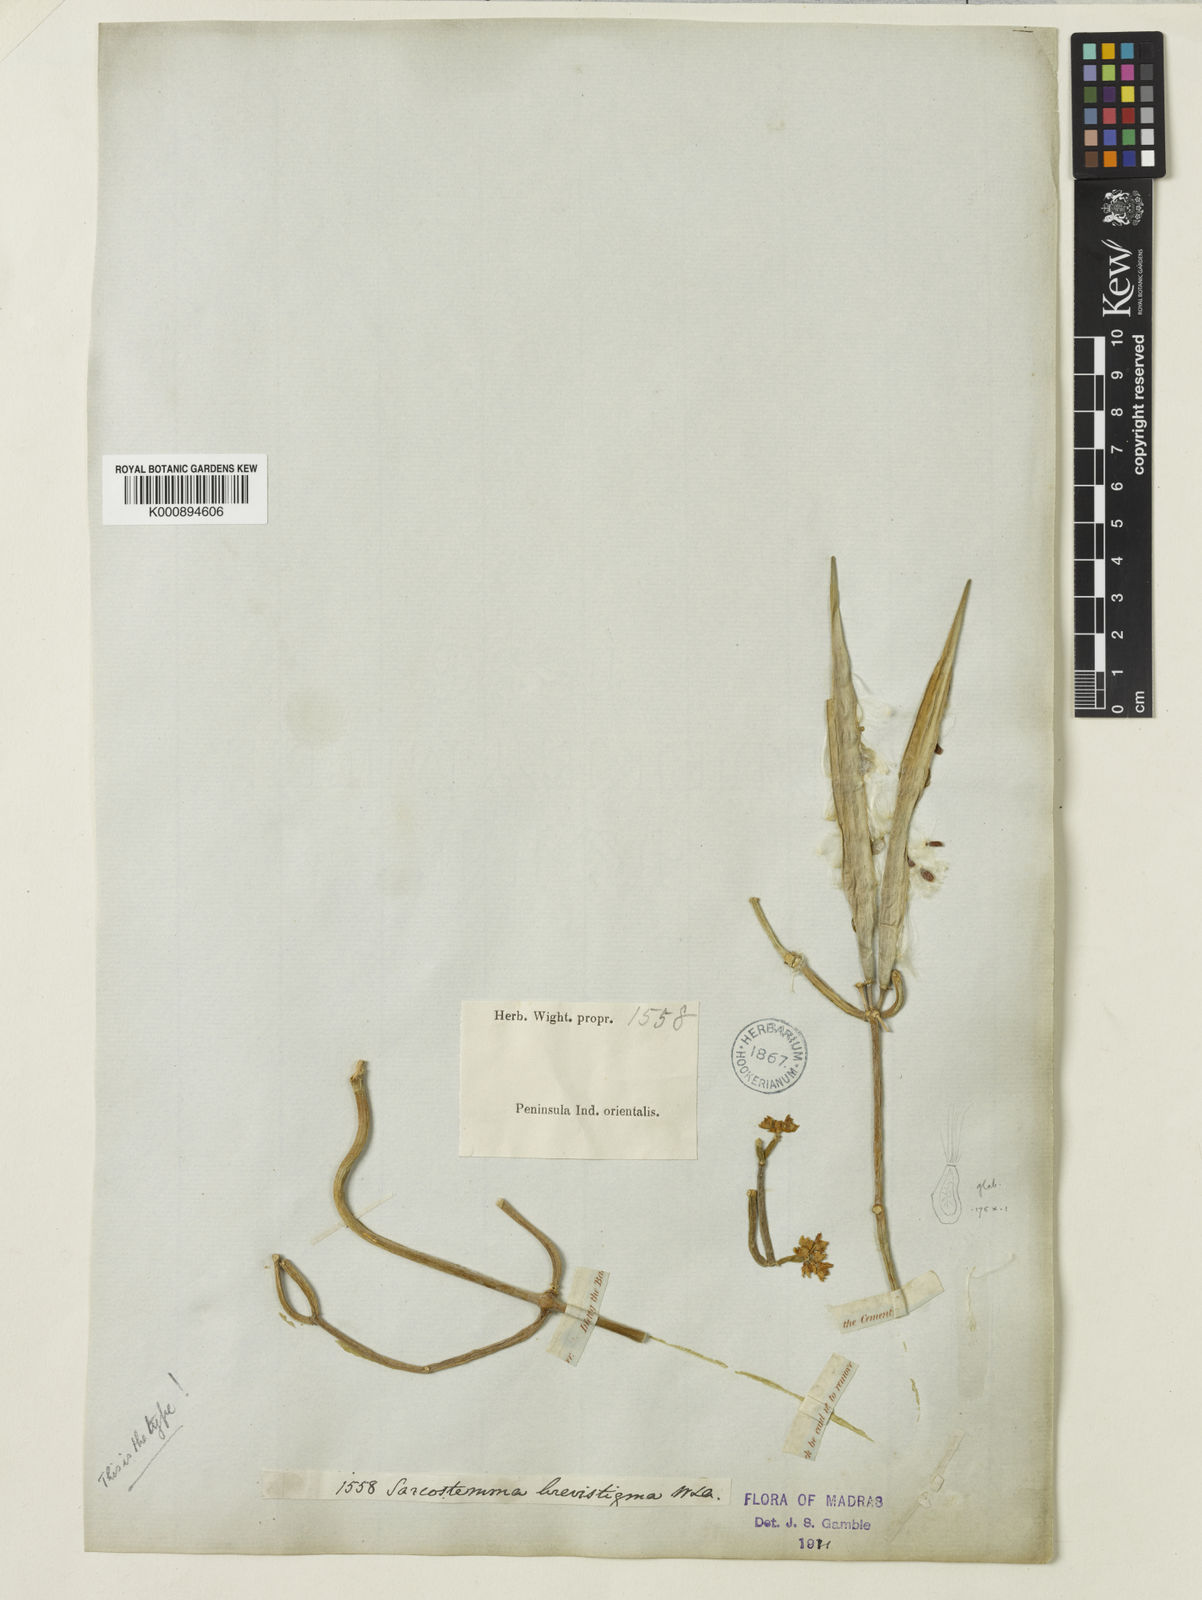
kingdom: Plantae
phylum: Tracheophyta
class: Magnoliopsida
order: Gentianales
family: Apocynaceae
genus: Cynanchum
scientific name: Cynanchum viminale
